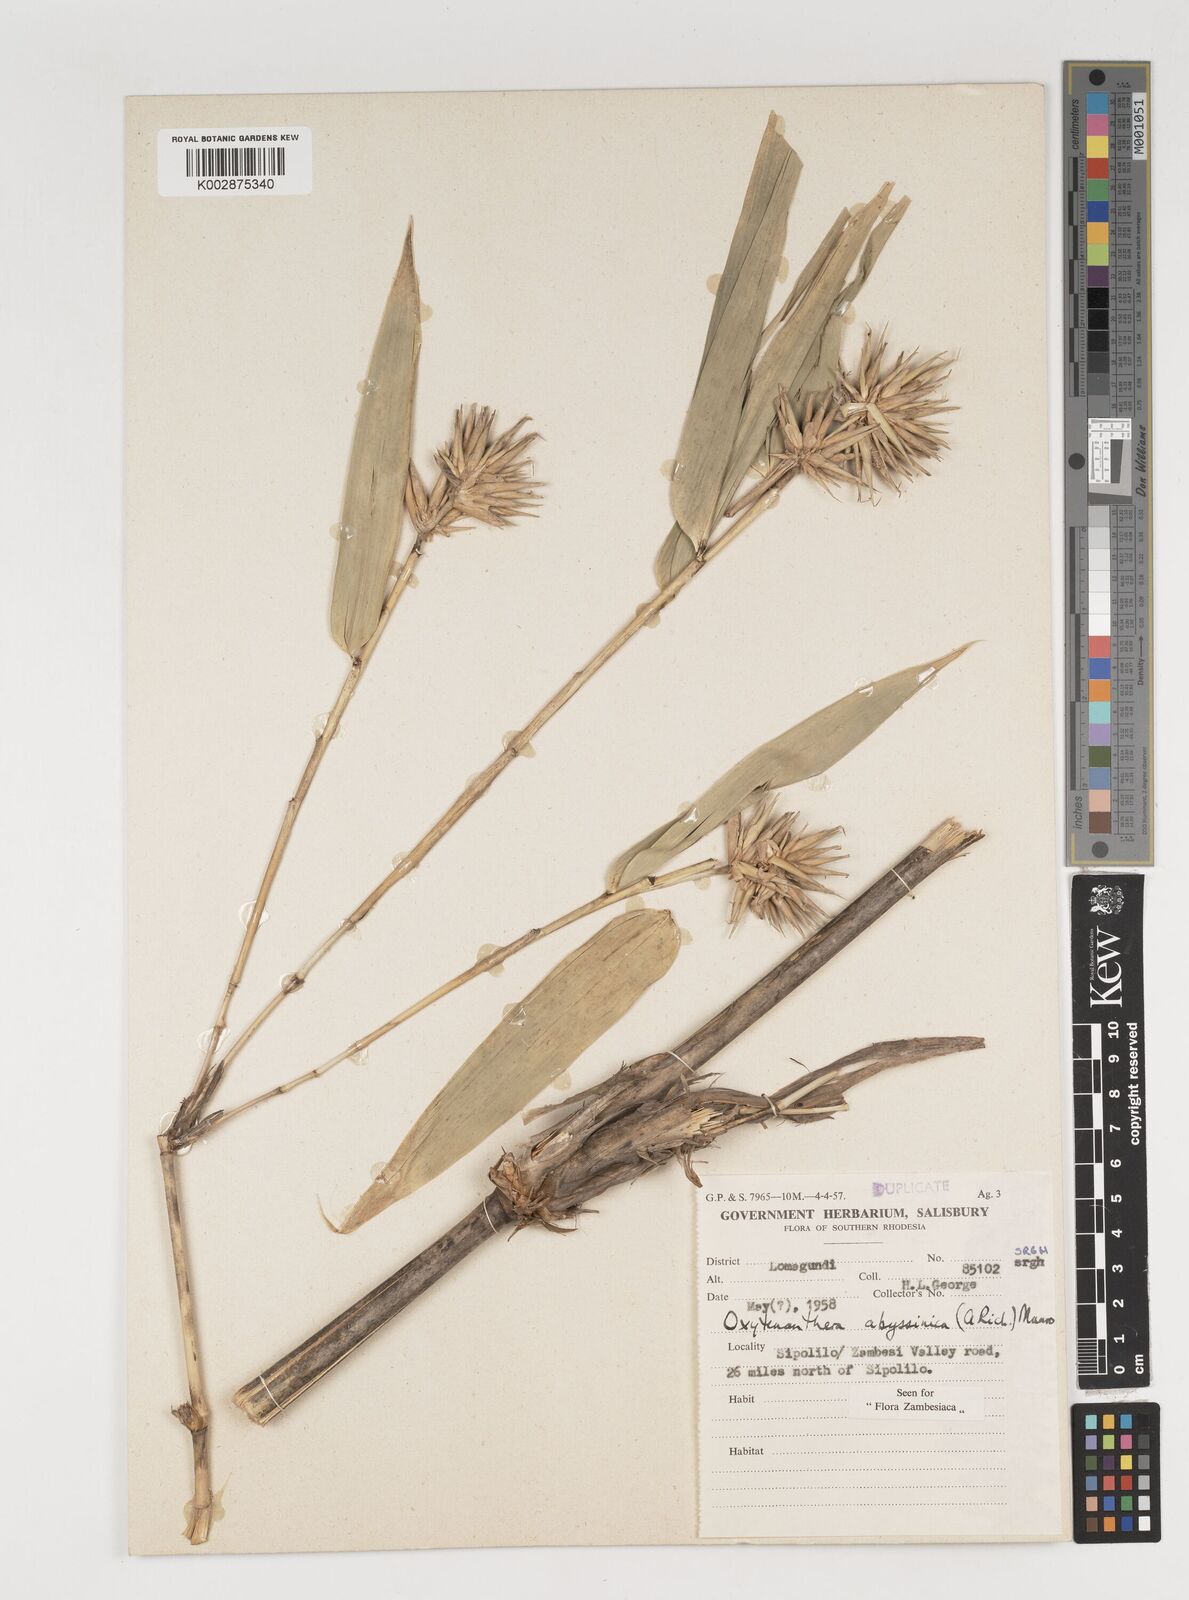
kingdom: Plantae
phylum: Tracheophyta
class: Liliopsida
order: Poales
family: Poaceae
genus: Oxytenanthera
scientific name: Oxytenanthera abyssinica
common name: Wine bamboo
